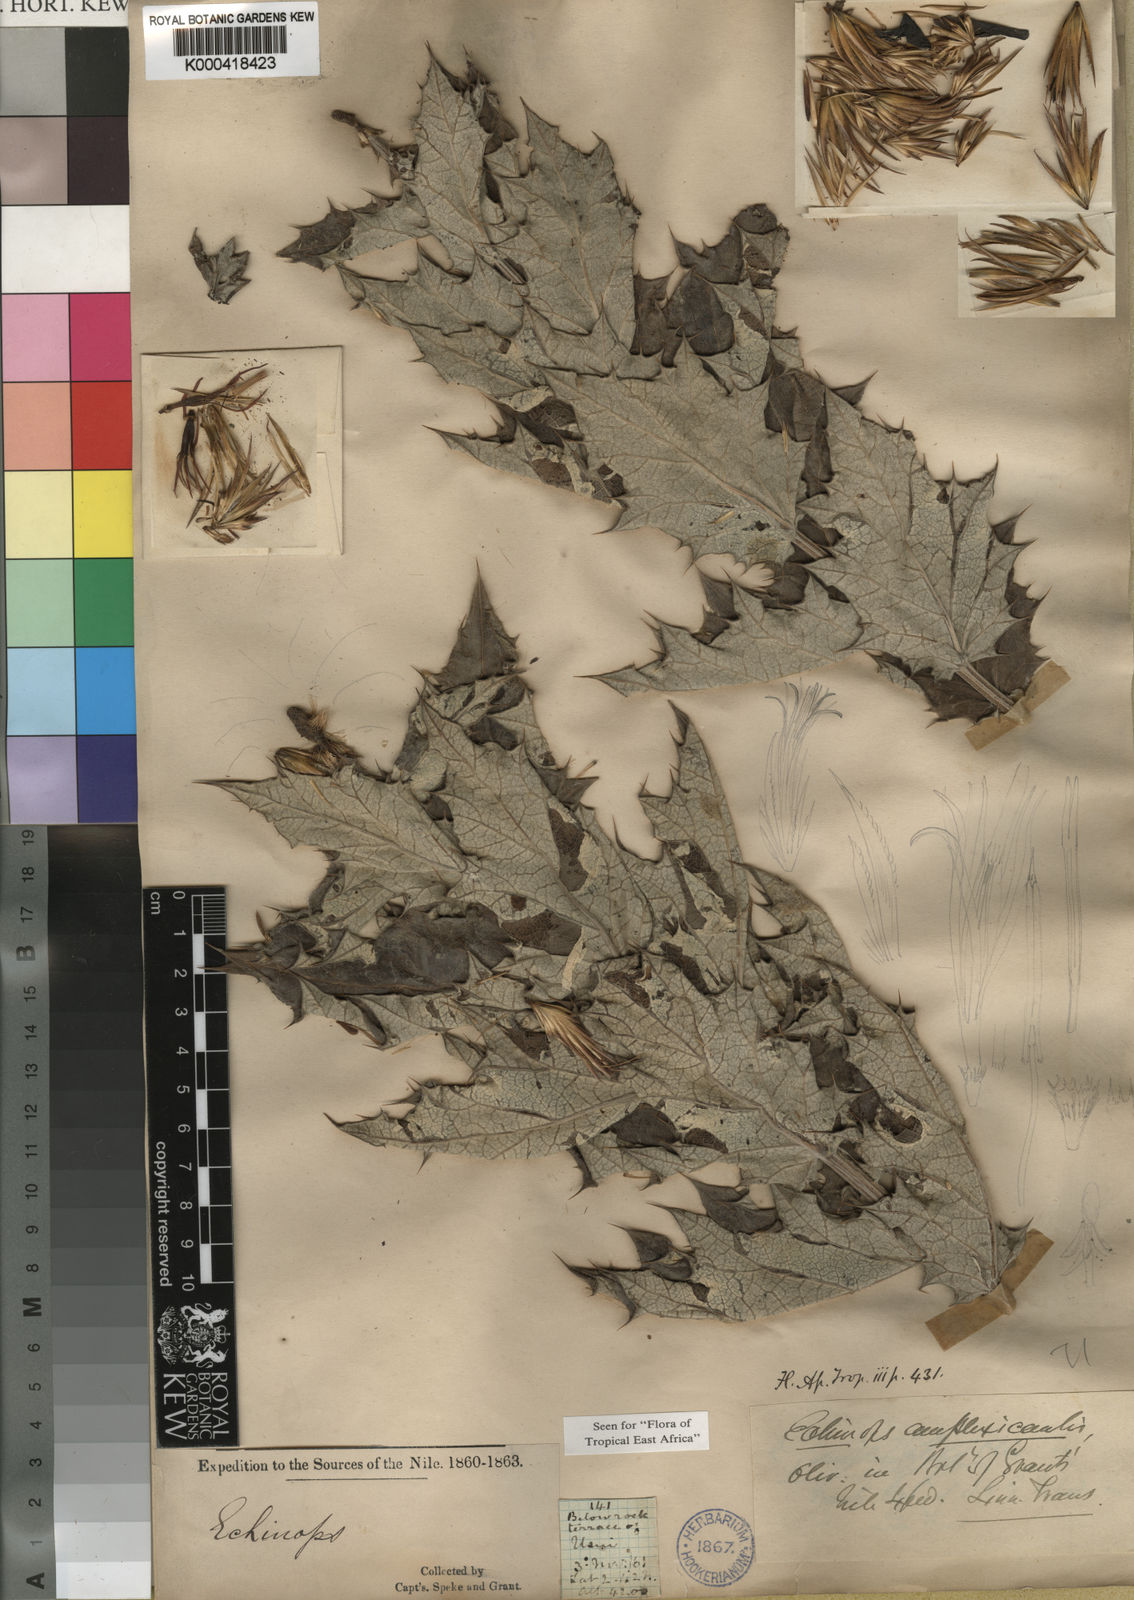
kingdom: Plantae
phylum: Tracheophyta
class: Magnoliopsida
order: Asterales
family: Asteraceae
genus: Echinops
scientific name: Echinops amplexicaulis
